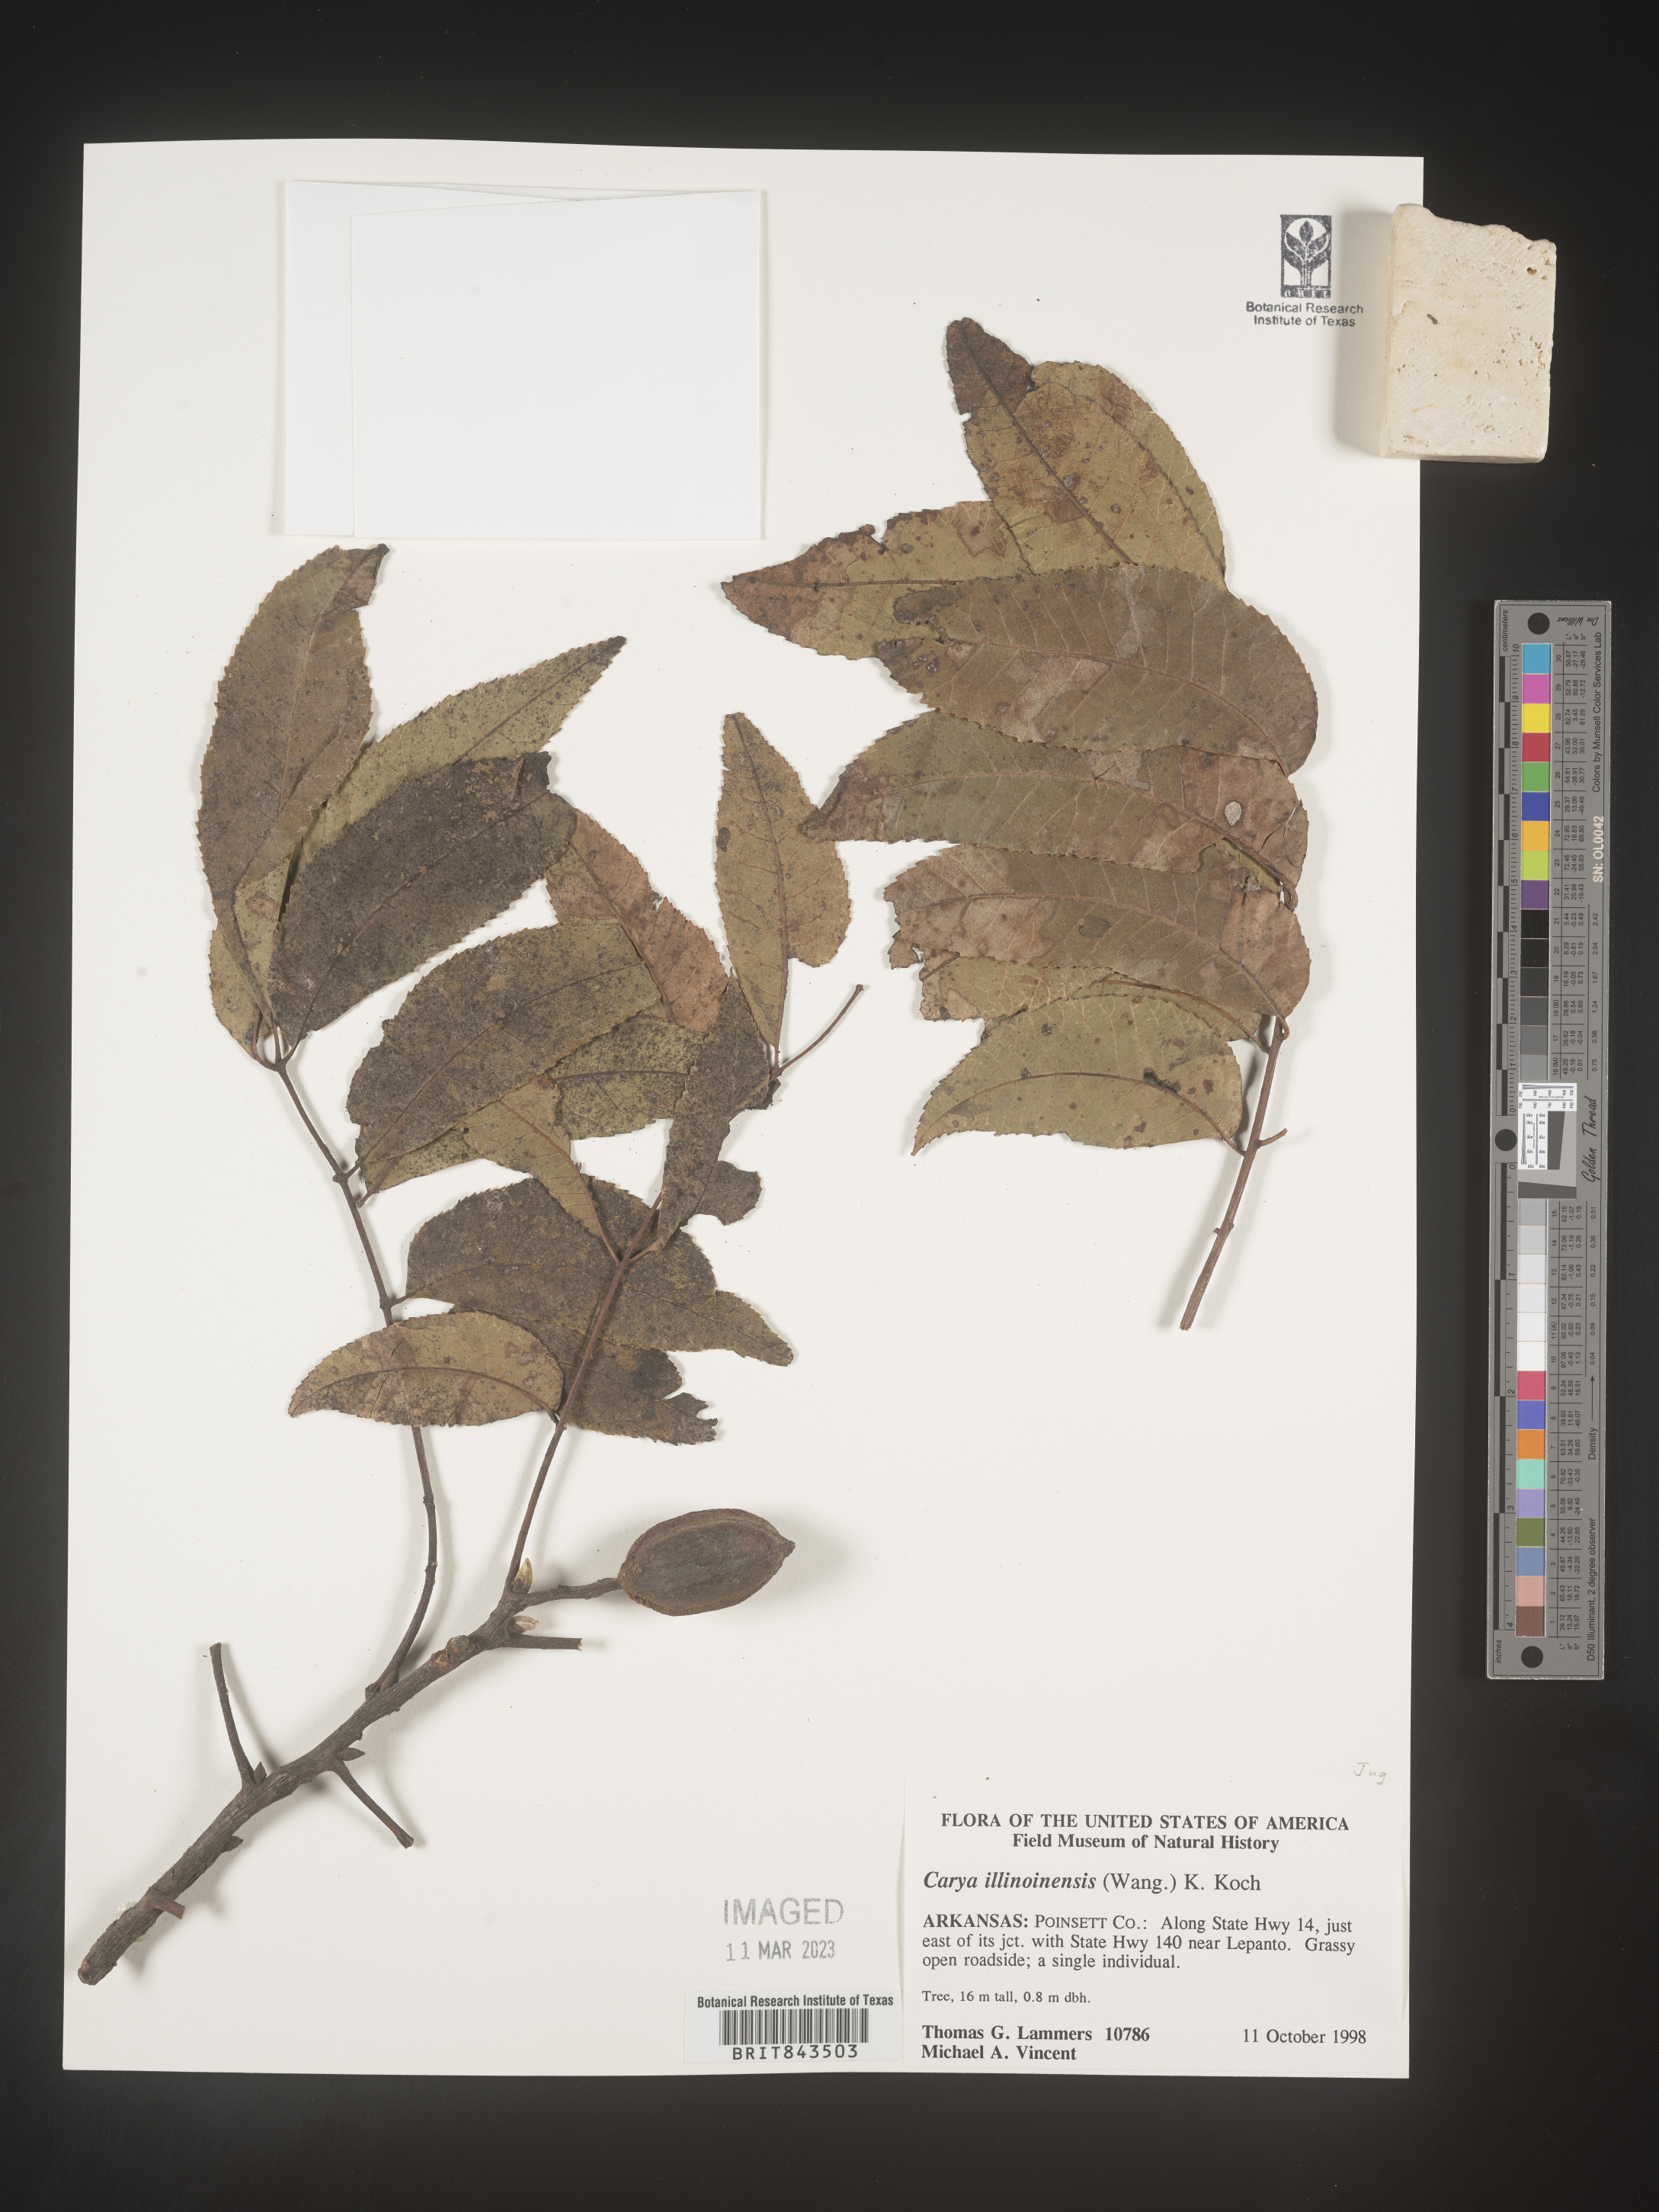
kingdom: Plantae
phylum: Tracheophyta
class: Magnoliopsida
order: Fagales
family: Juglandaceae
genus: Carya
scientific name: Carya illinoinensis
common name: Pecan
